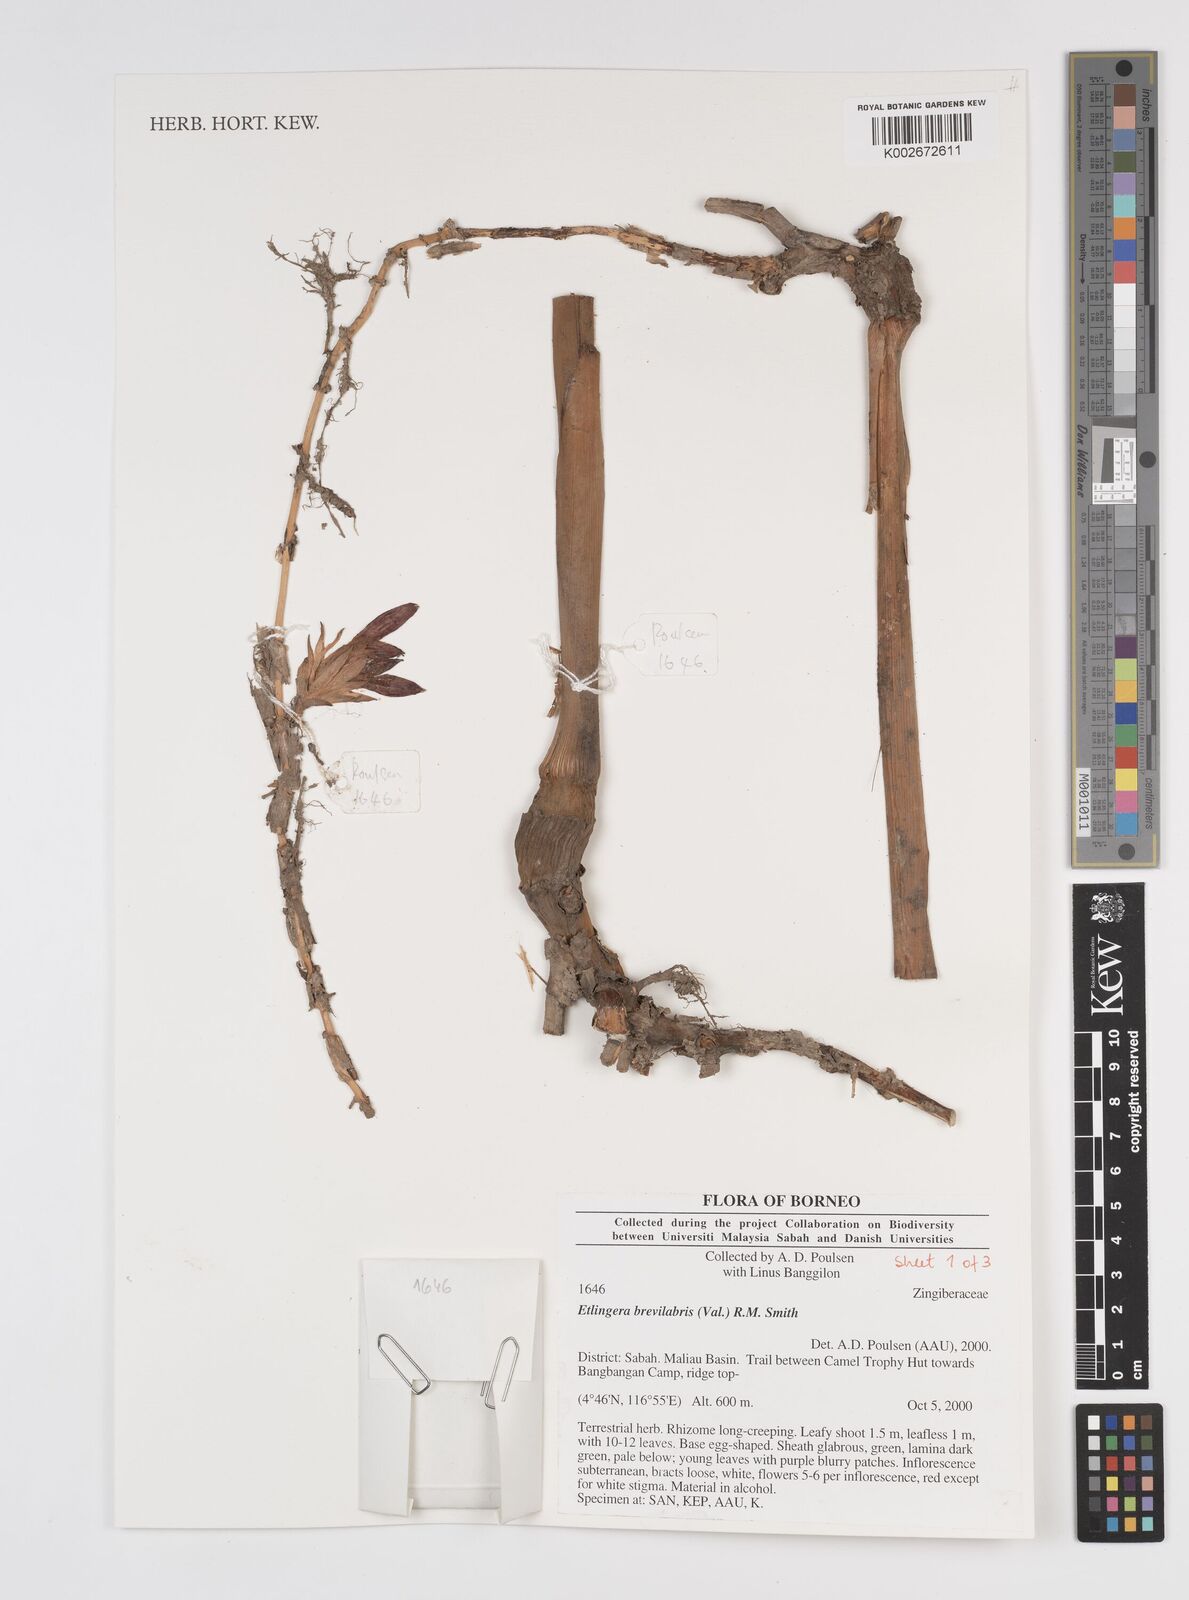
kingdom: Plantae
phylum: Tracheophyta
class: Liliopsida
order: Zingiberales
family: Zingiberaceae
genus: Etlingera
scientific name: Etlingera
